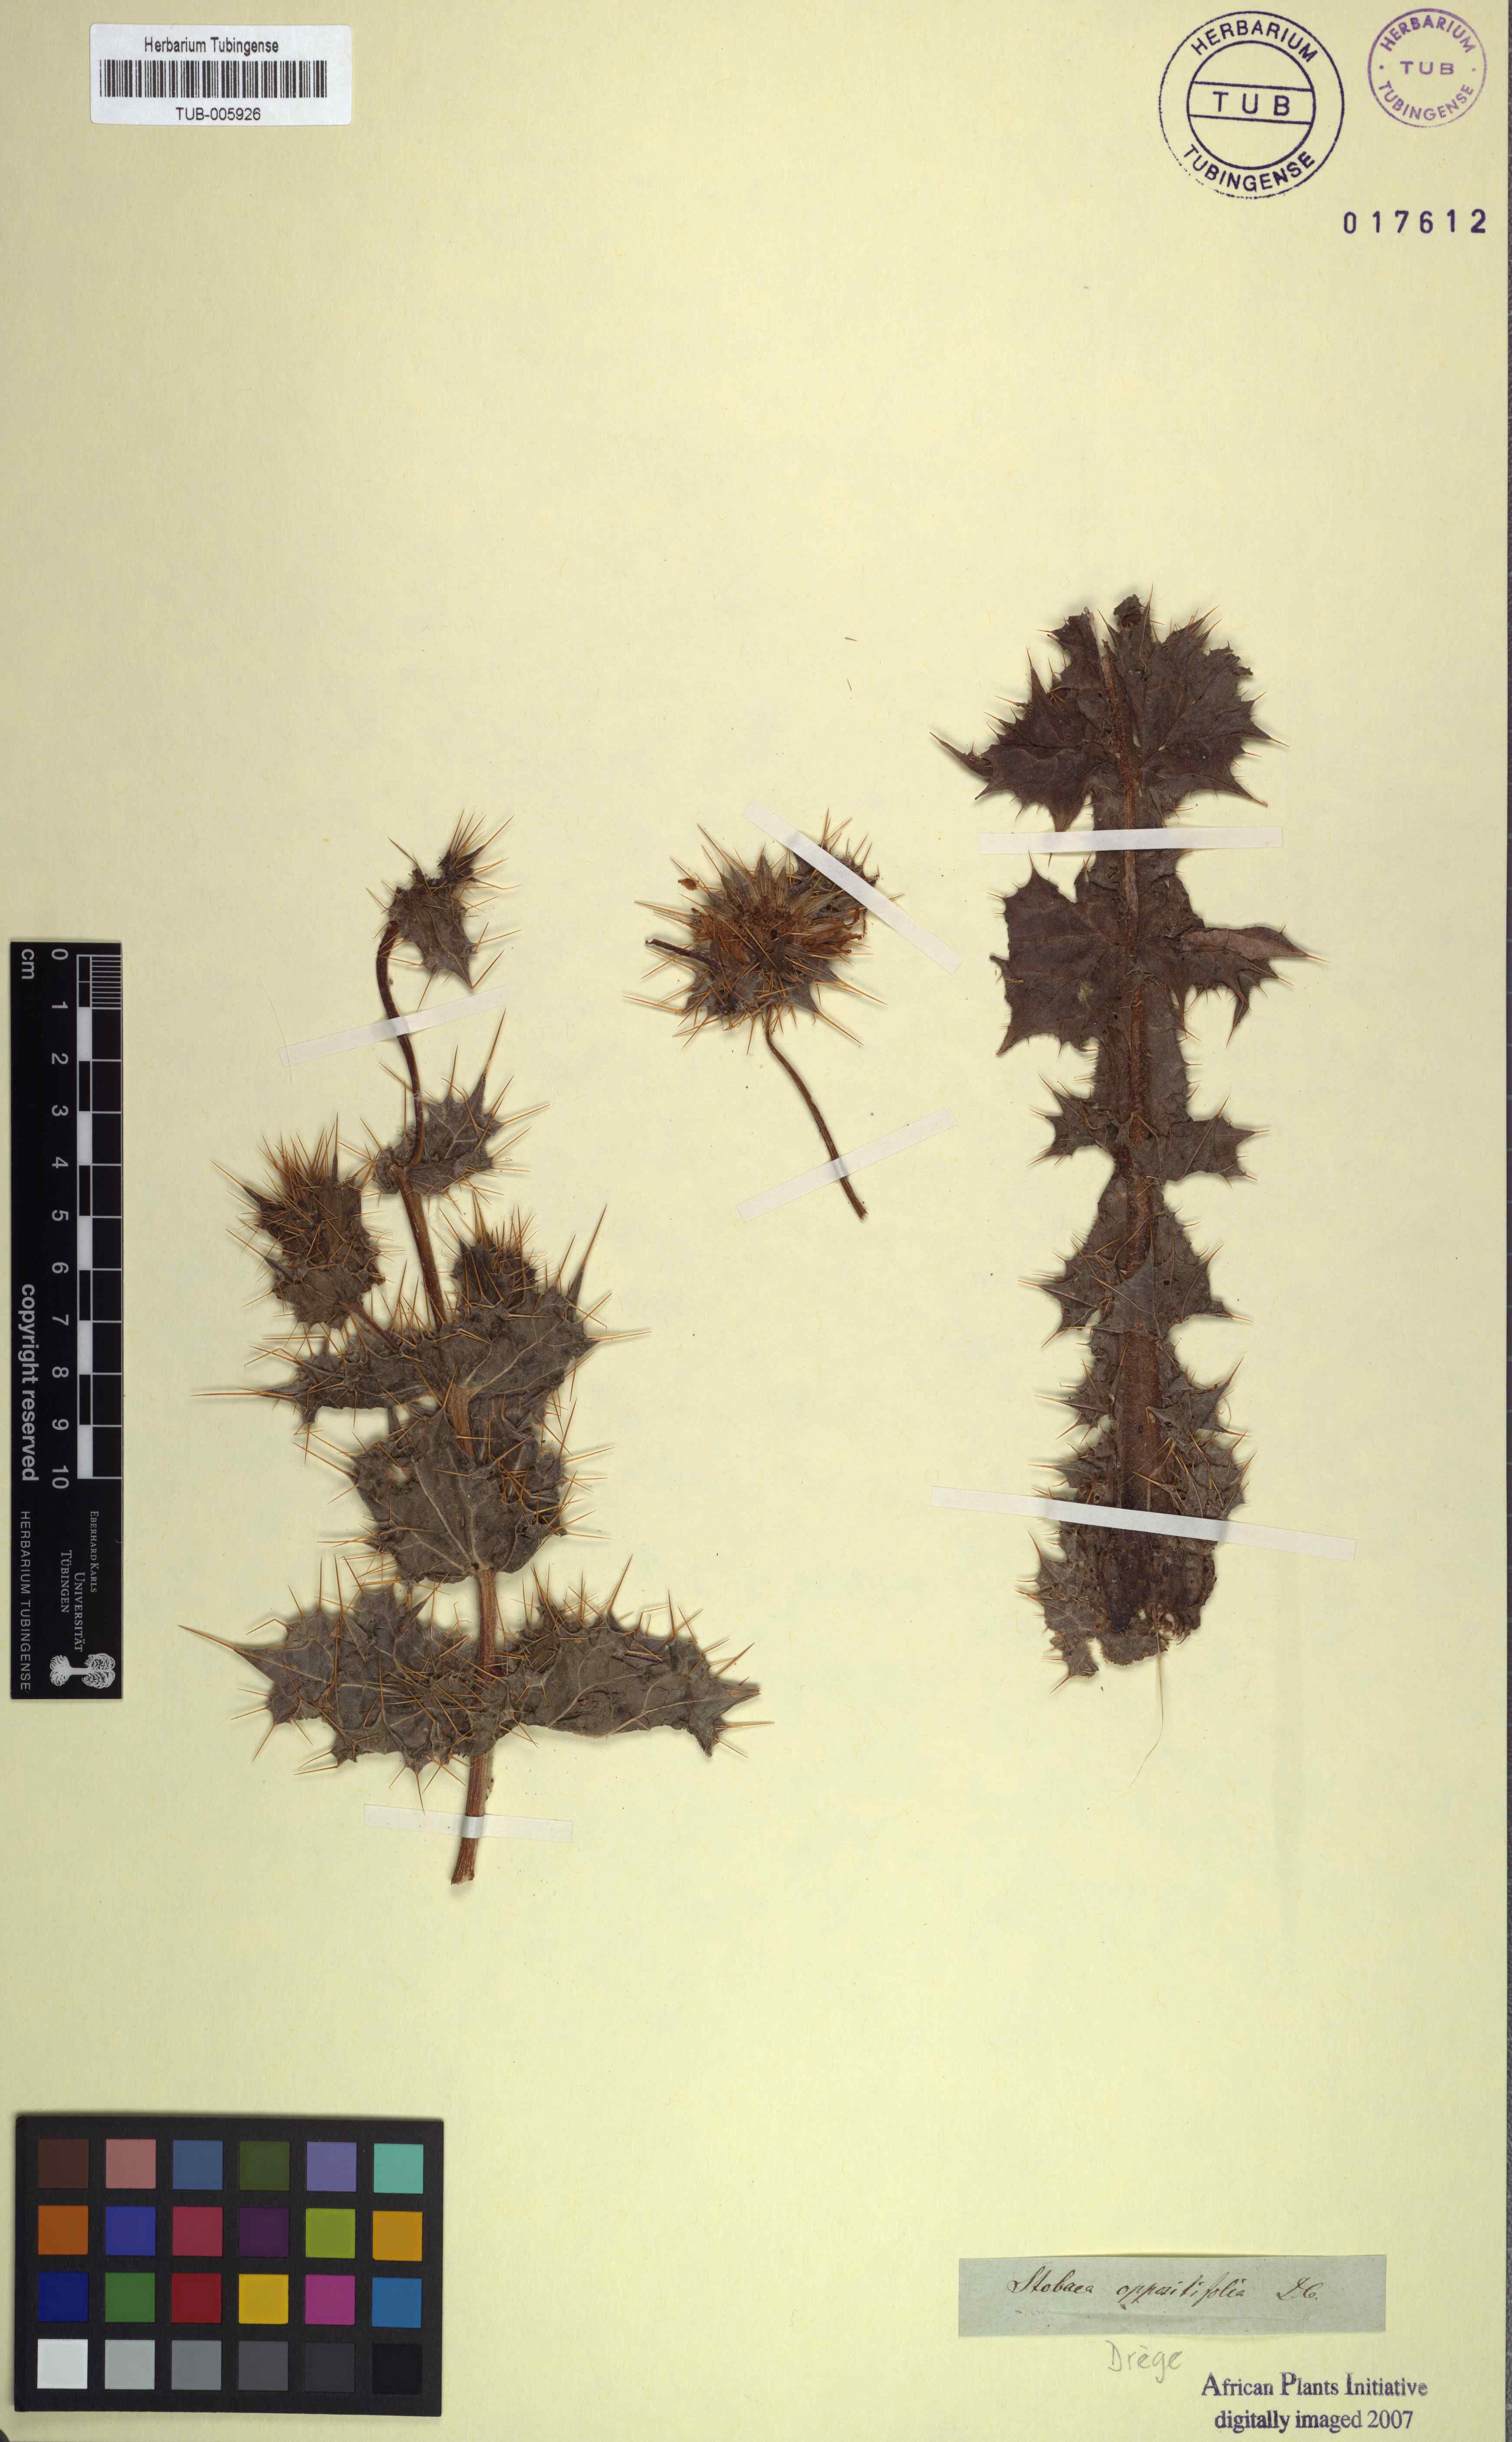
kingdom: Plantae
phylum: Tracheophyta
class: Magnoliopsida
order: Asterales
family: Asteraceae
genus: Berkheya
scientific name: Berkheya spinosissima
